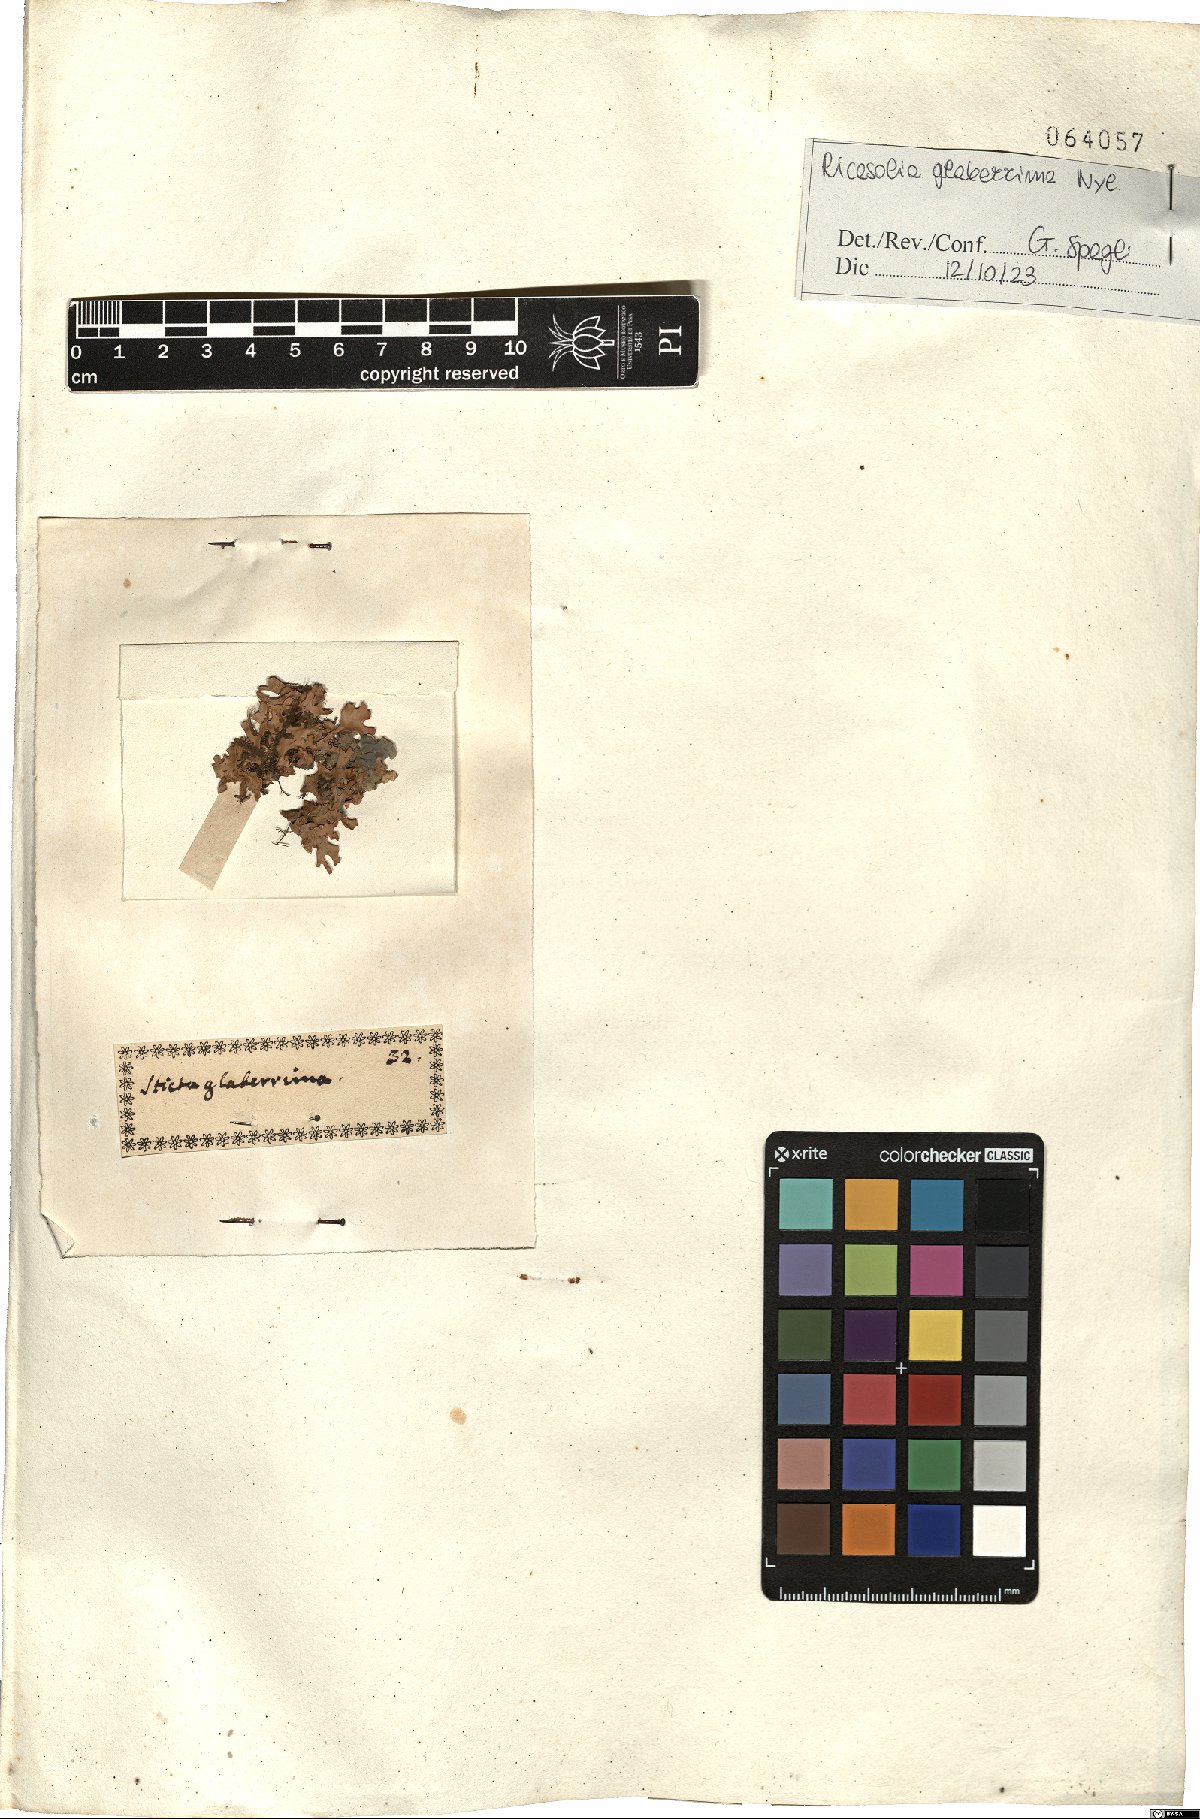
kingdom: Fungi
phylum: Ascomycota
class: Lecanoromycetes
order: Peltigerales
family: Lobariaceae
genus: Ricasolia
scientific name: Ricasolia
